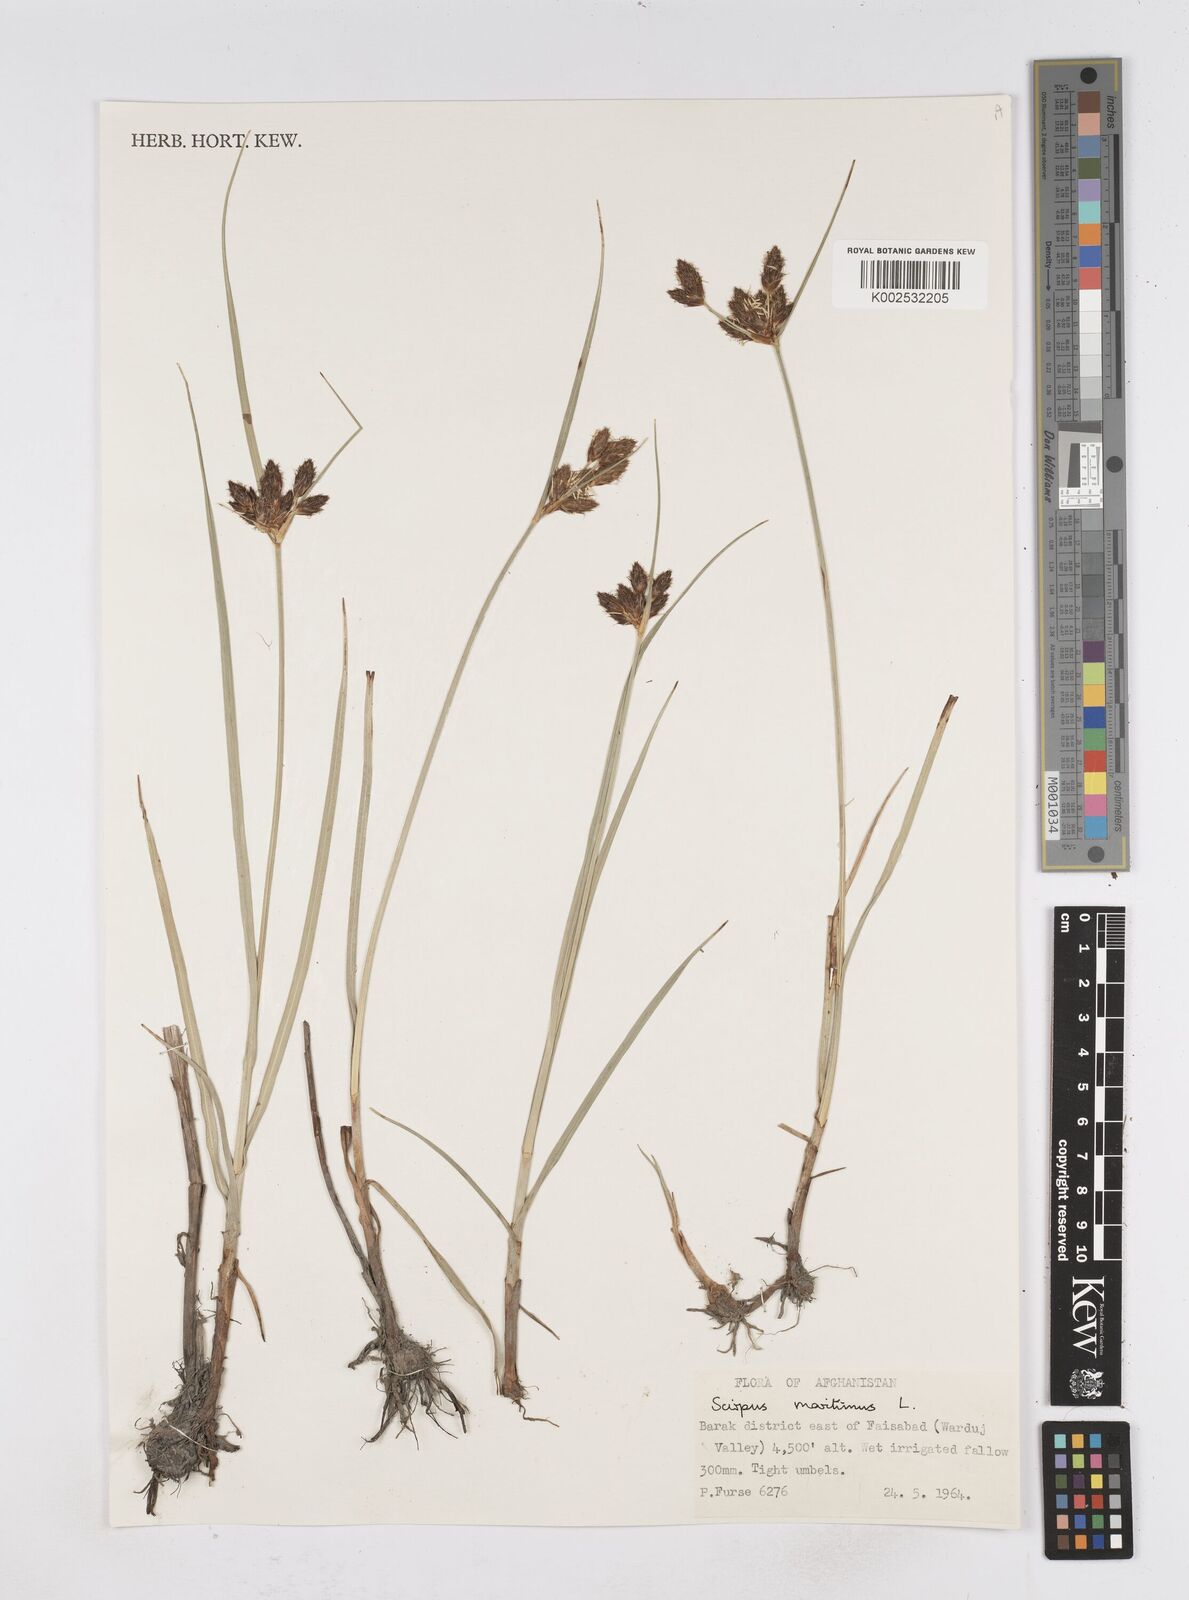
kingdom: Plantae
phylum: Tracheophyta
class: Liliopsida
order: Poales
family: Cyperaceae
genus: Bolboschoenus
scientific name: Bolboschoenus maritimus
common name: Sea club-rush
